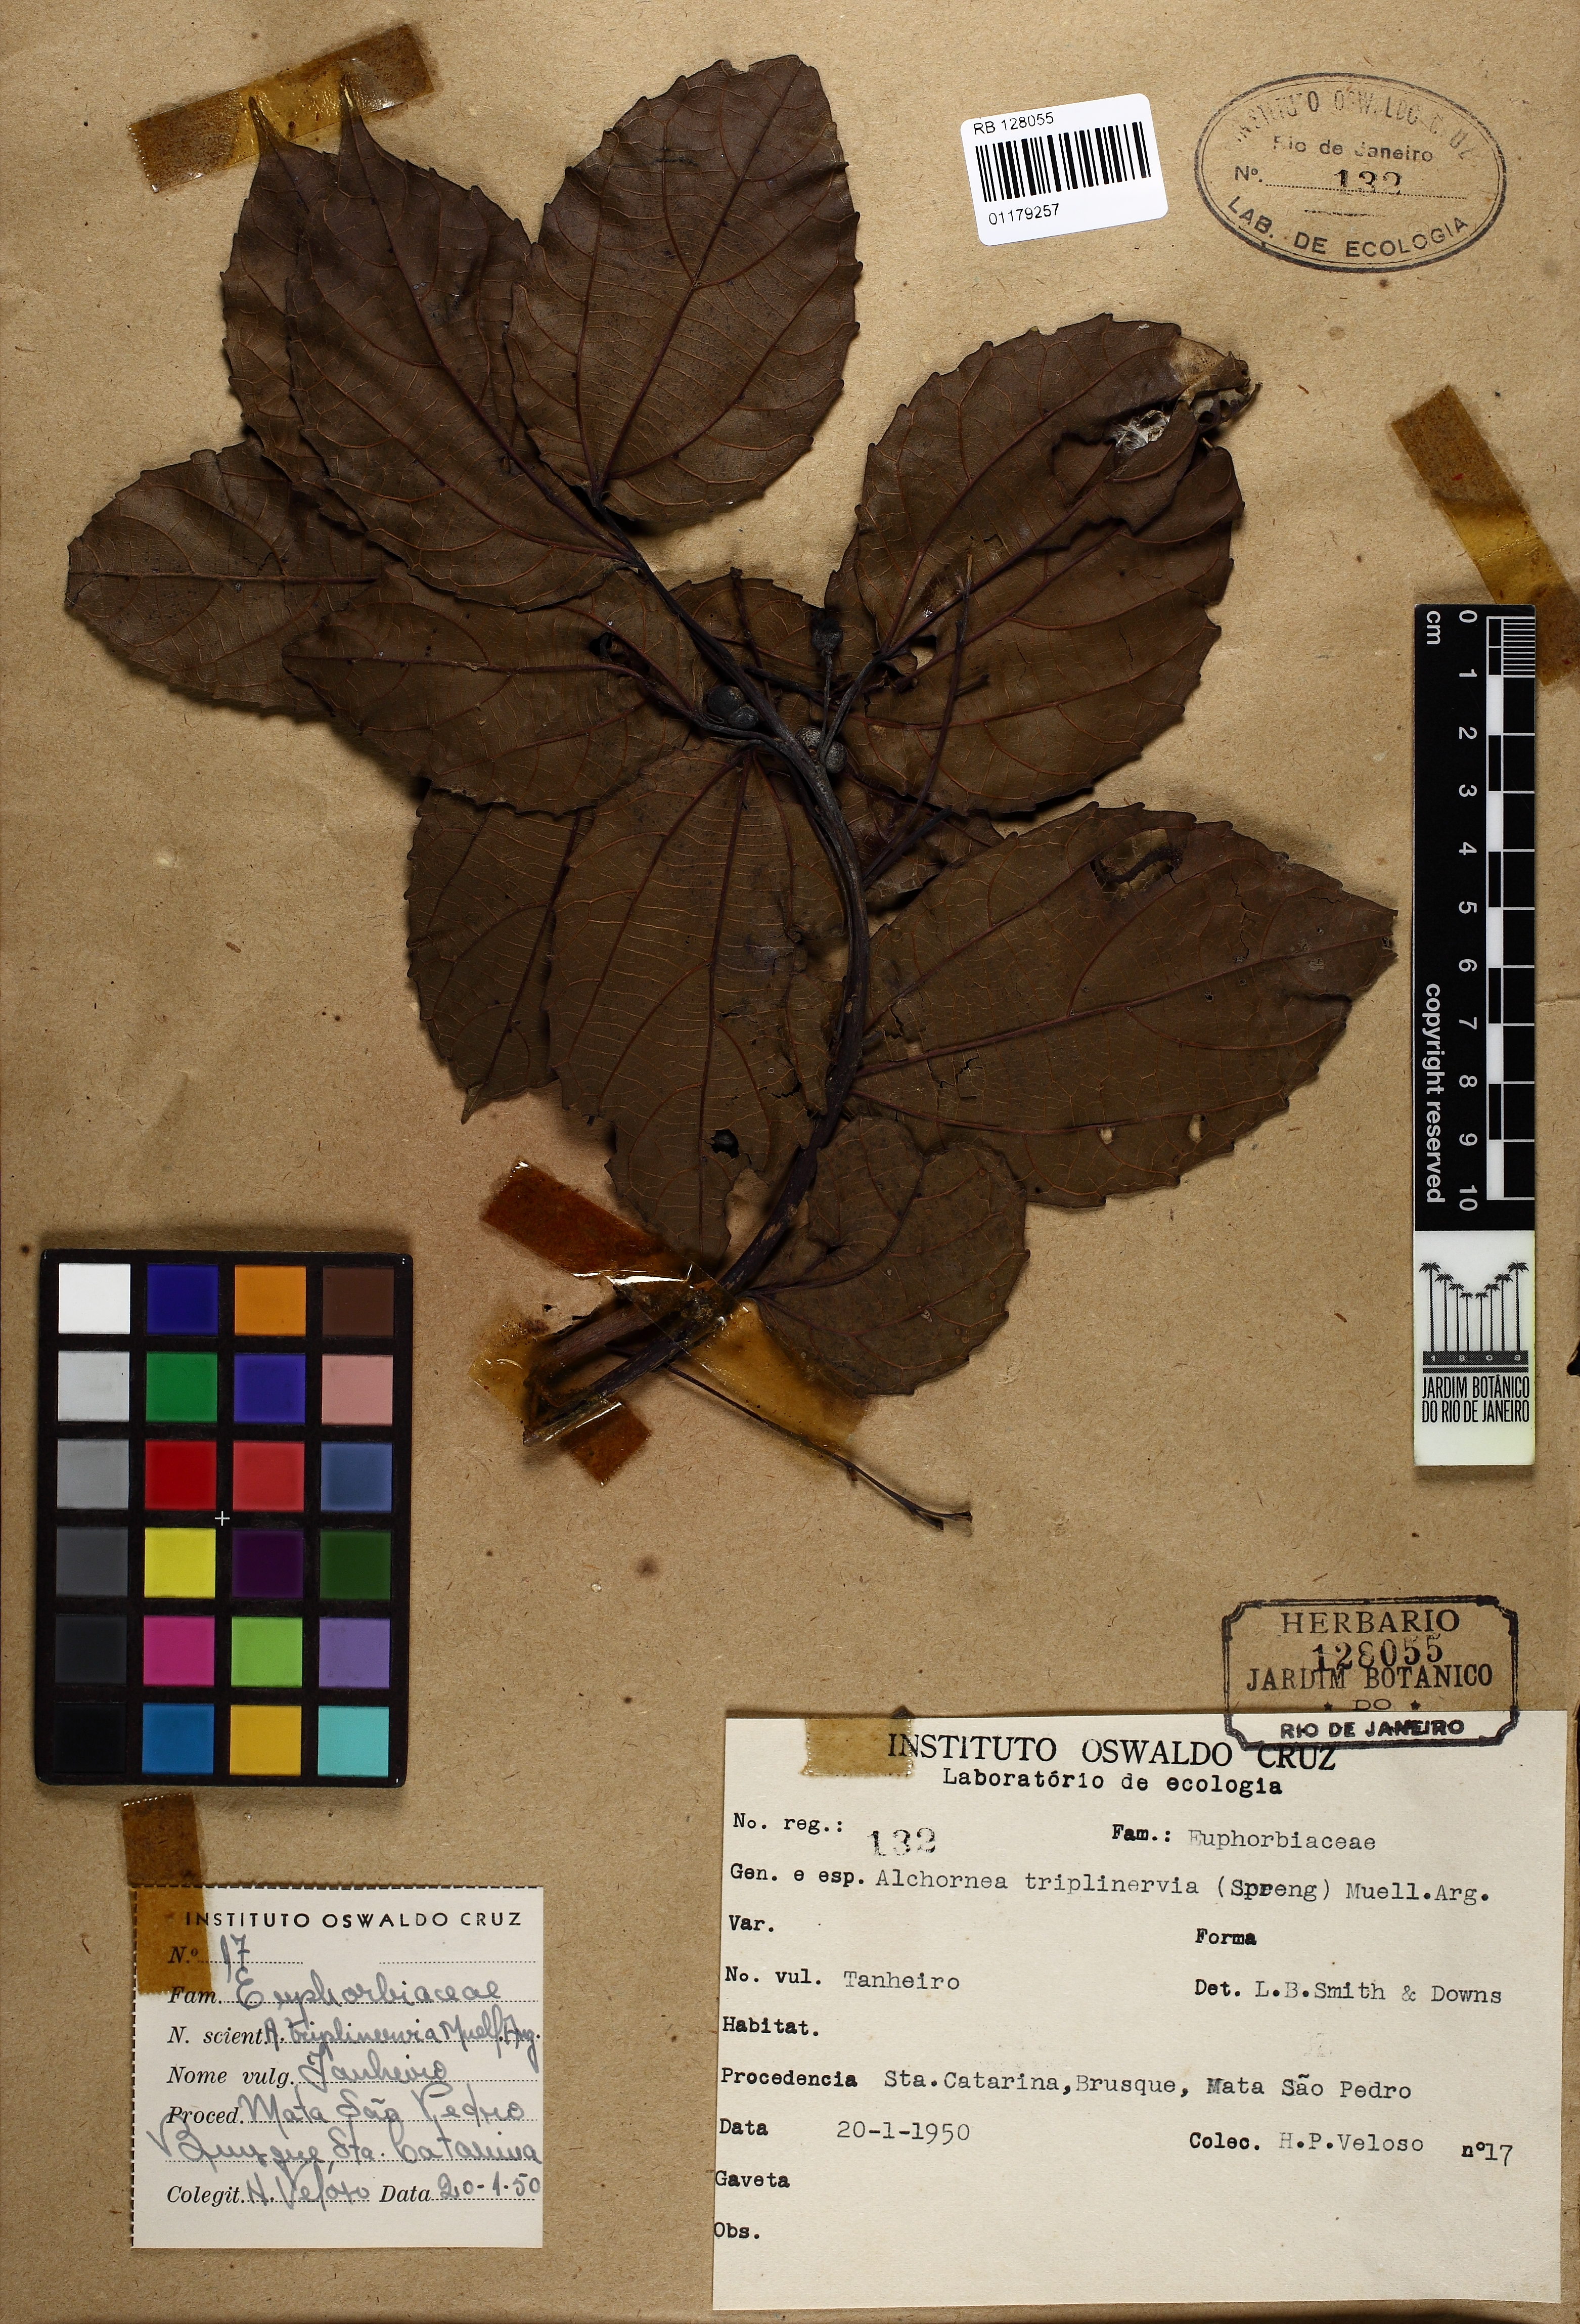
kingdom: Plantae
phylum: Tracheophyta
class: Magnoliopsida
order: Malpighiales
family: Euphorbiaceae
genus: Alchornea
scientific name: Alchornea triplinervia
